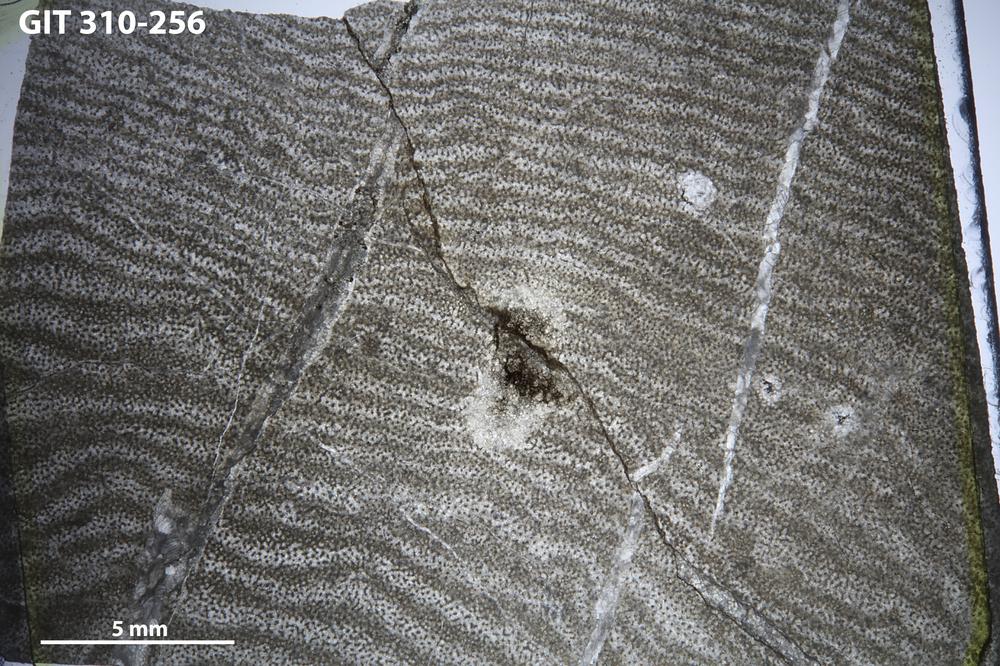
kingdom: Animalia
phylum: Porifera
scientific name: Porifera
